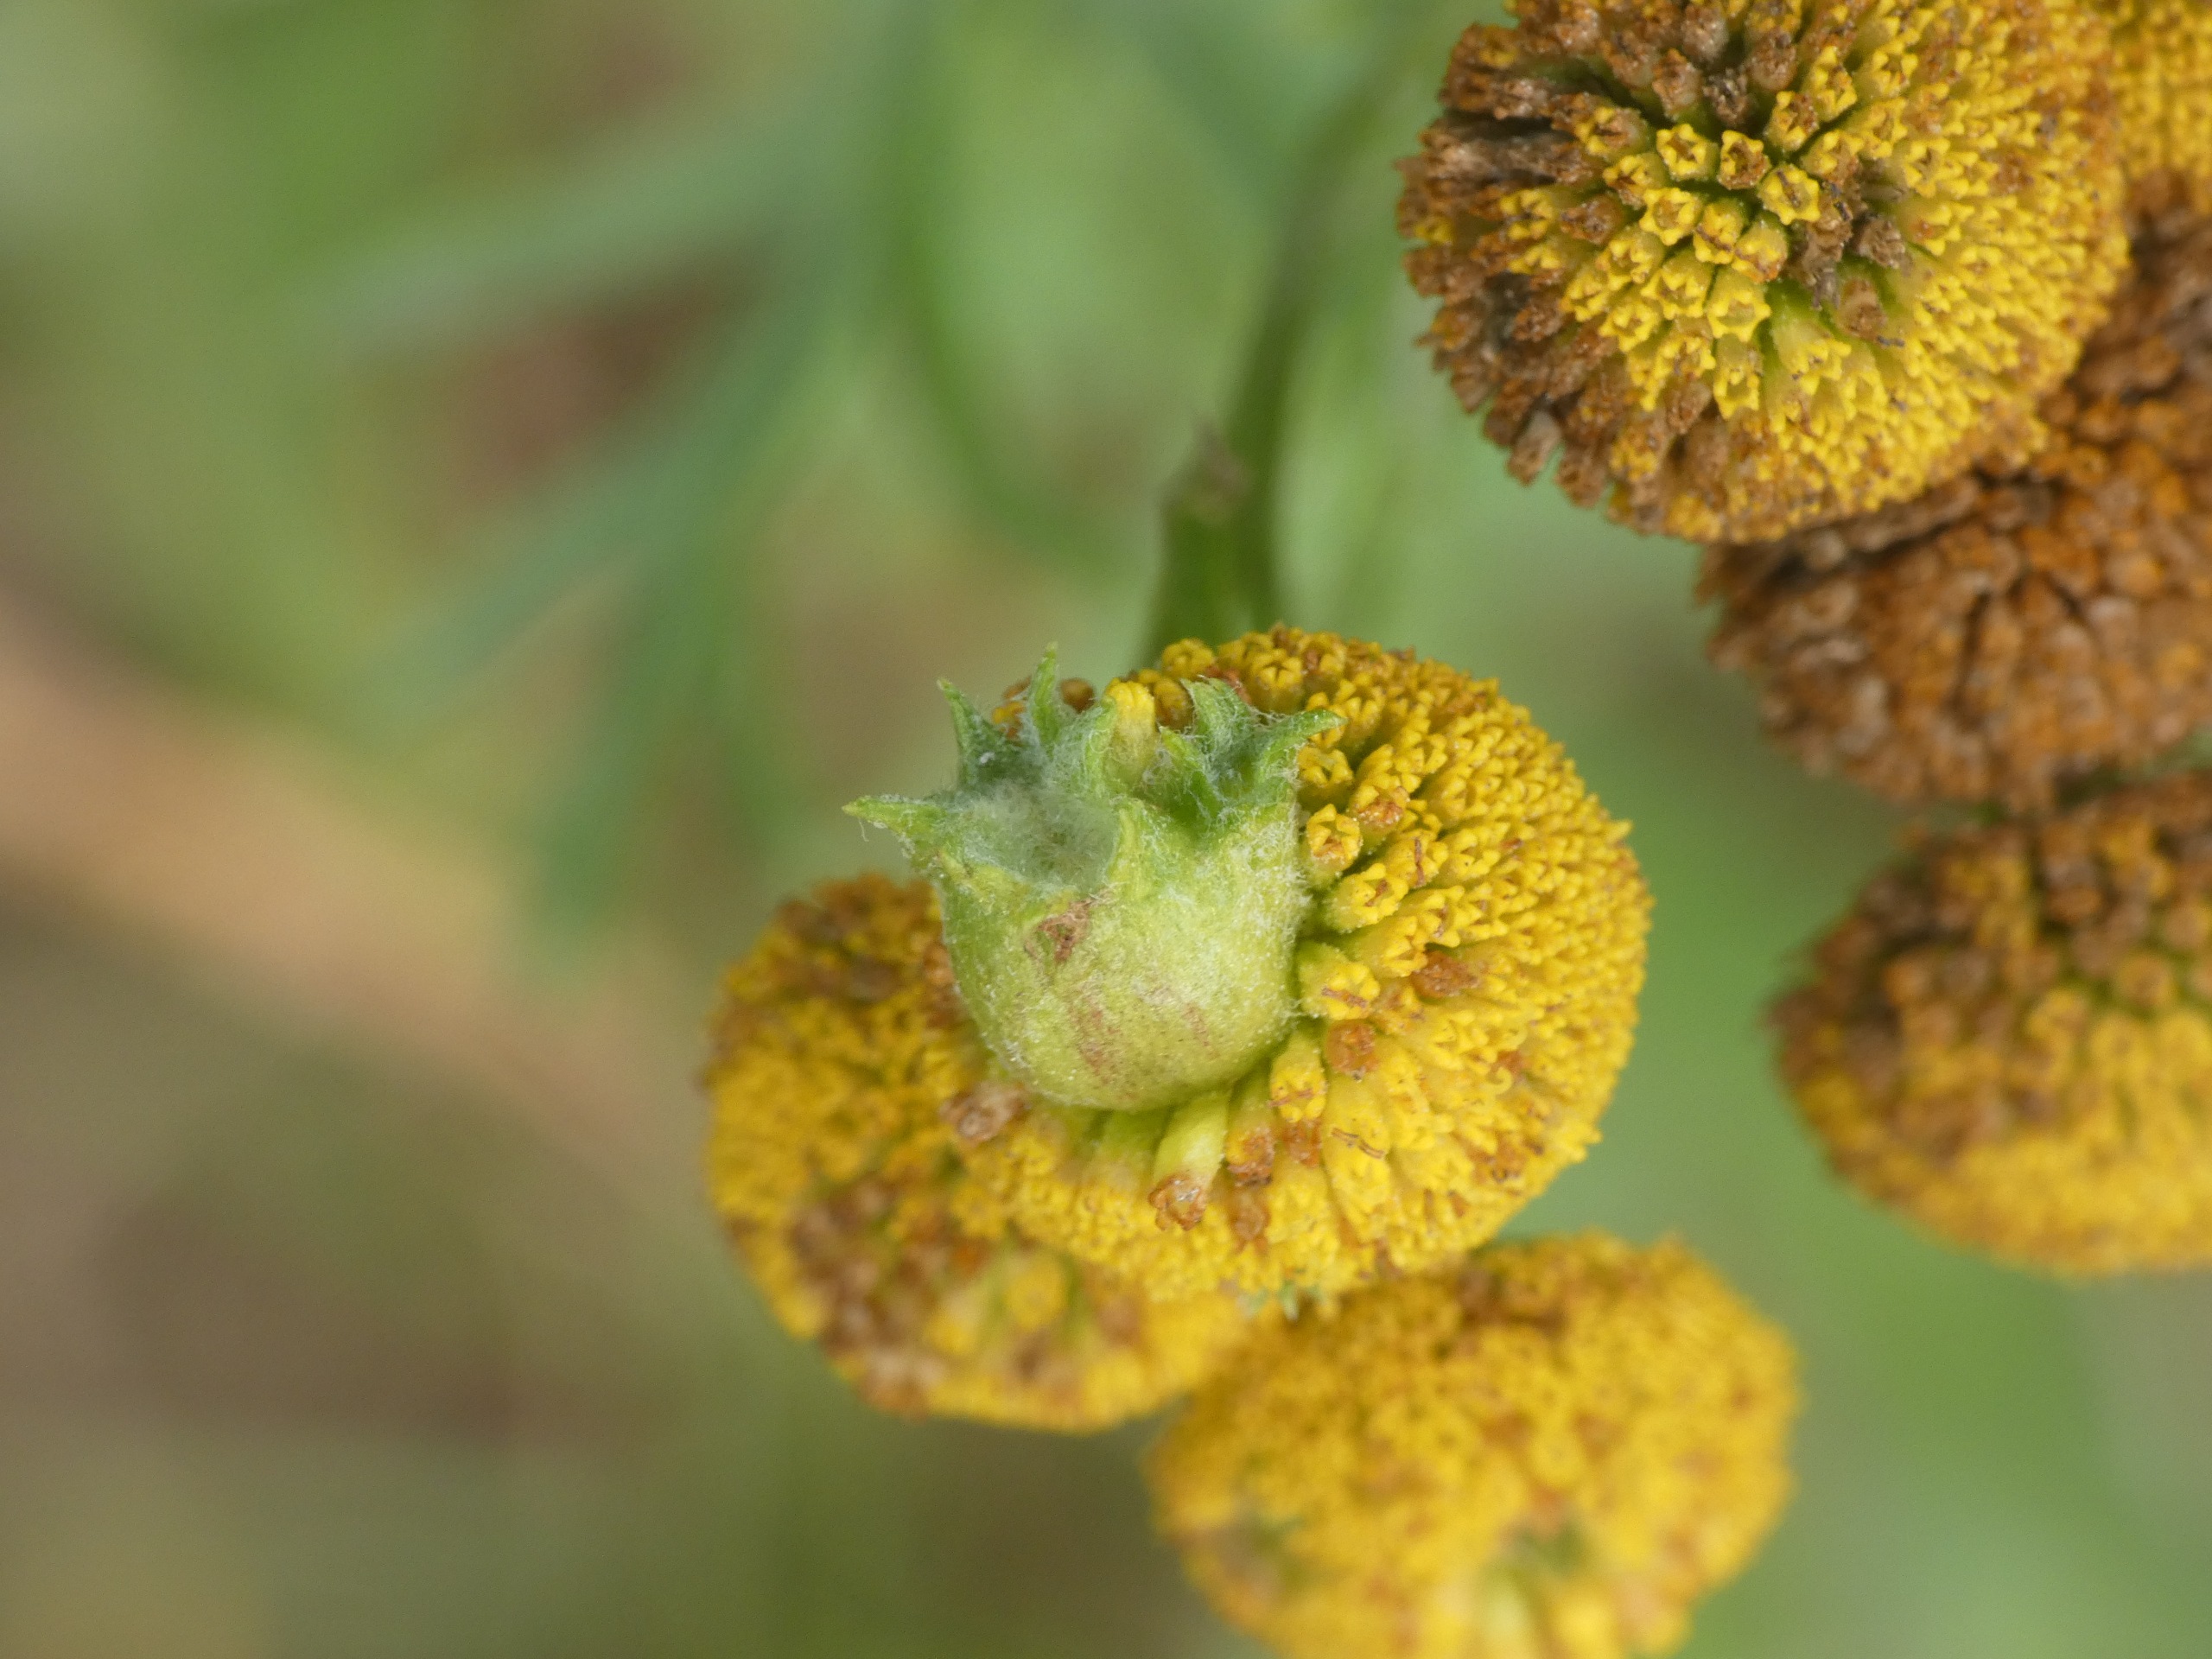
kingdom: Animalia
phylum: Arthropoda
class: Insecta
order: Diptera
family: Cecidomyiidae
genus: Rhopalomyia
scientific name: Rhopalomyia tanaceticolus
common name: Rejnfangalmyg
